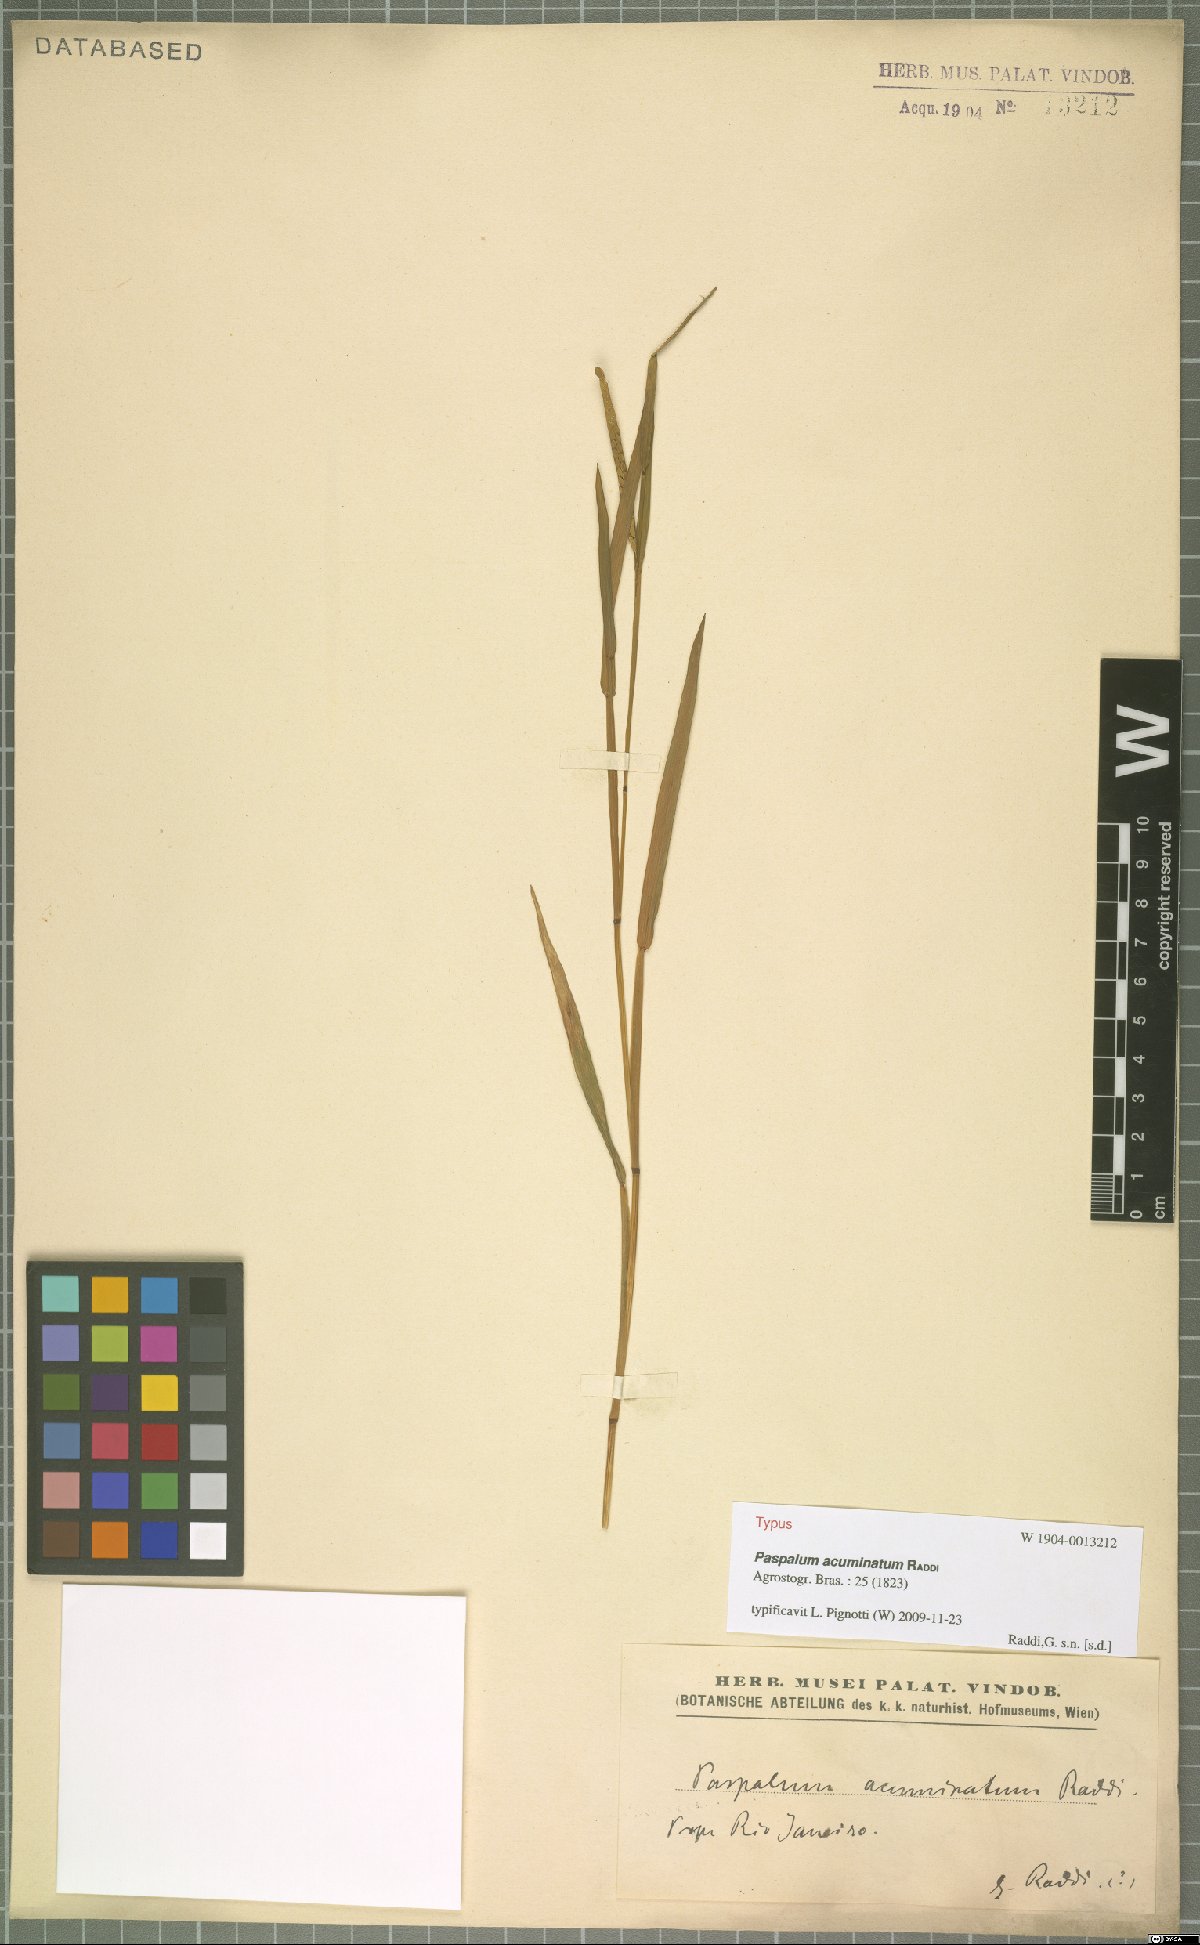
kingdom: Plantae
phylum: Tracheophyta
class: Liliopsida
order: Poales
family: Poaceae
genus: Paspalum
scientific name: Paspalum acuminatum
